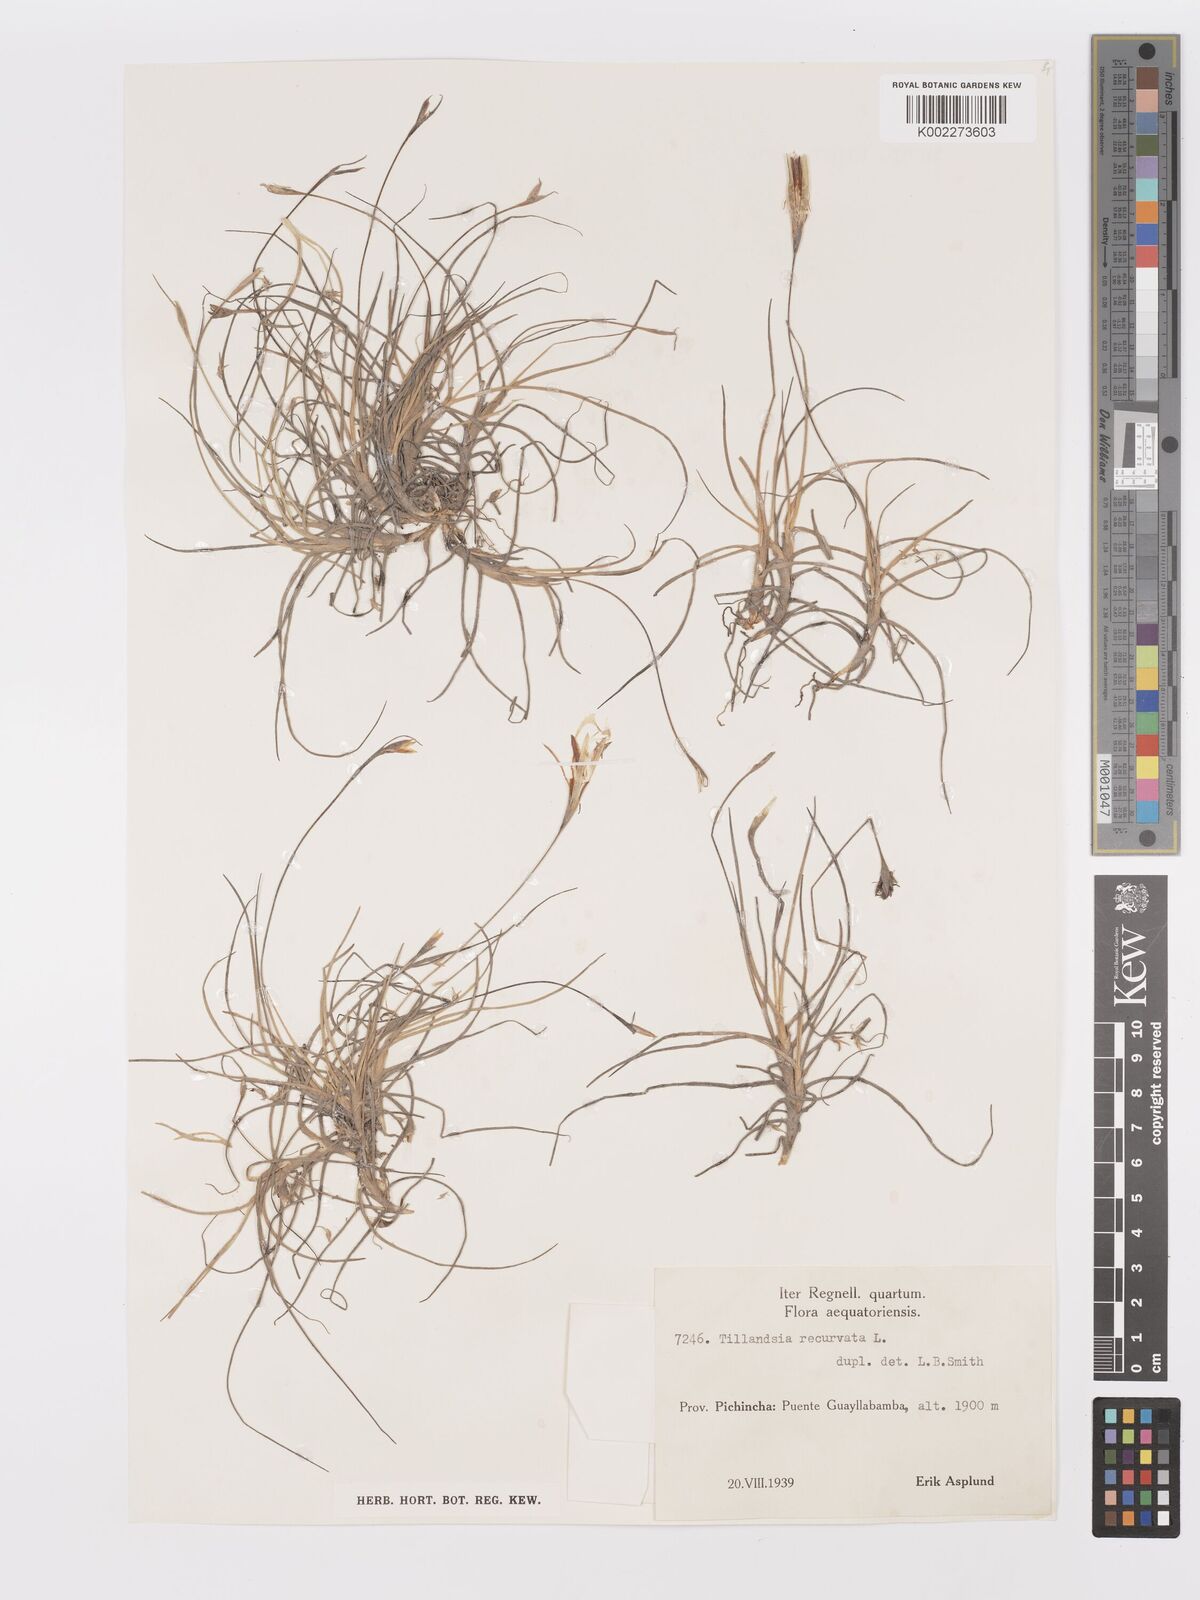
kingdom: Plantae
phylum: Tracheophyta
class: Liliopsida
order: Poales
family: Bromeliaceae
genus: Tillandsia
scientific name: Tillandsia recurvata
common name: Small ballmoss
